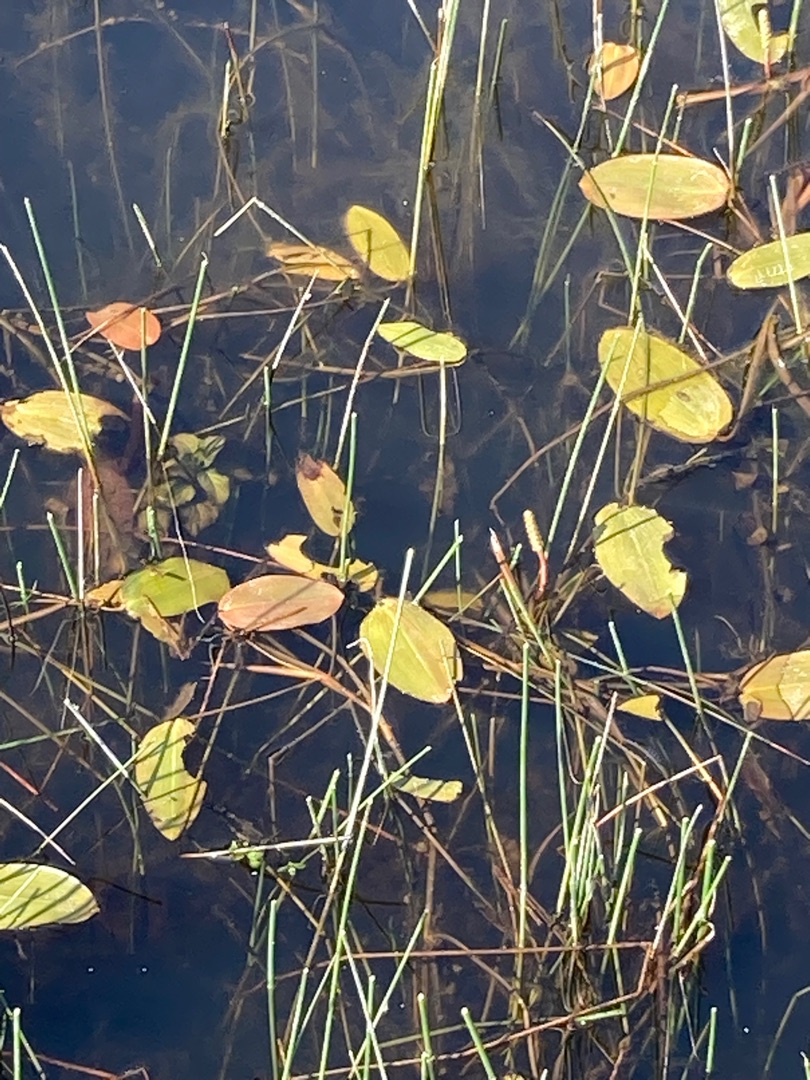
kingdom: Plantae
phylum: Tracheophyta
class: Liliopsida
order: Alismatales
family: Potamogetonaceae
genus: Potamogeton
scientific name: Potamogeton natans
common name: Svømmende vandaks
